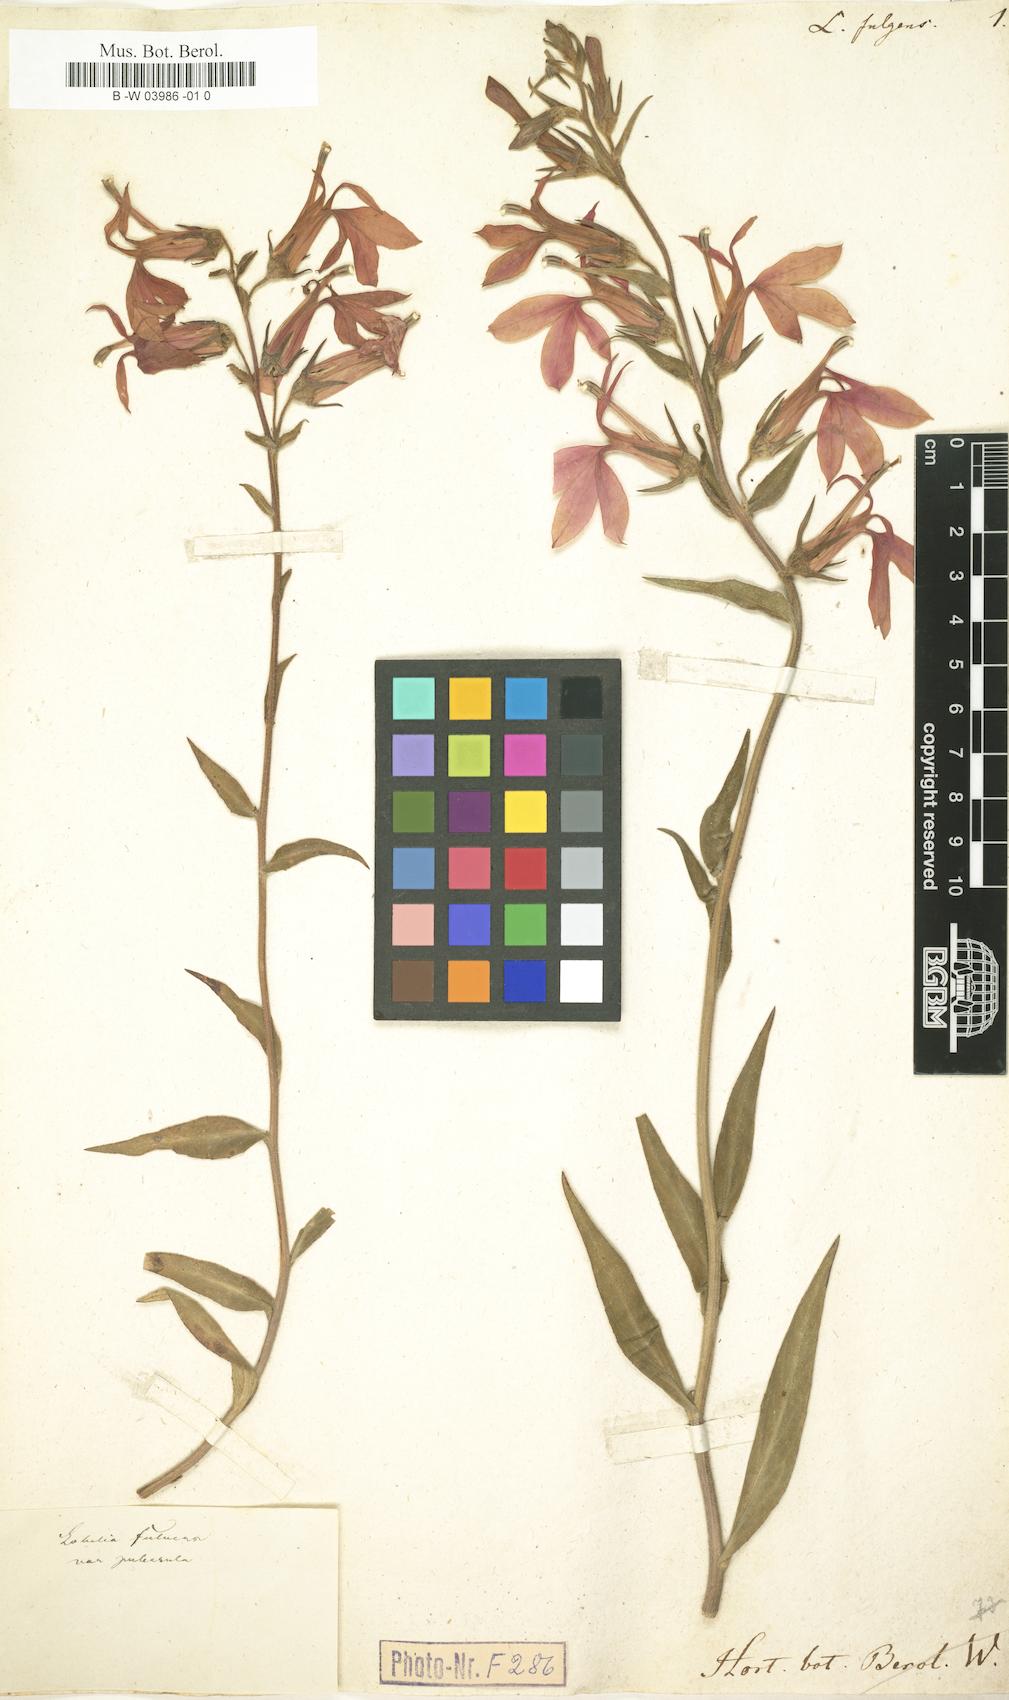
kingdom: Plantae
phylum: Tracheophyta
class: Magnoliopsida
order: Asterales
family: Campanulaceae
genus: Lobelia
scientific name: Lobelia cardinalis
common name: Cardinal flower
